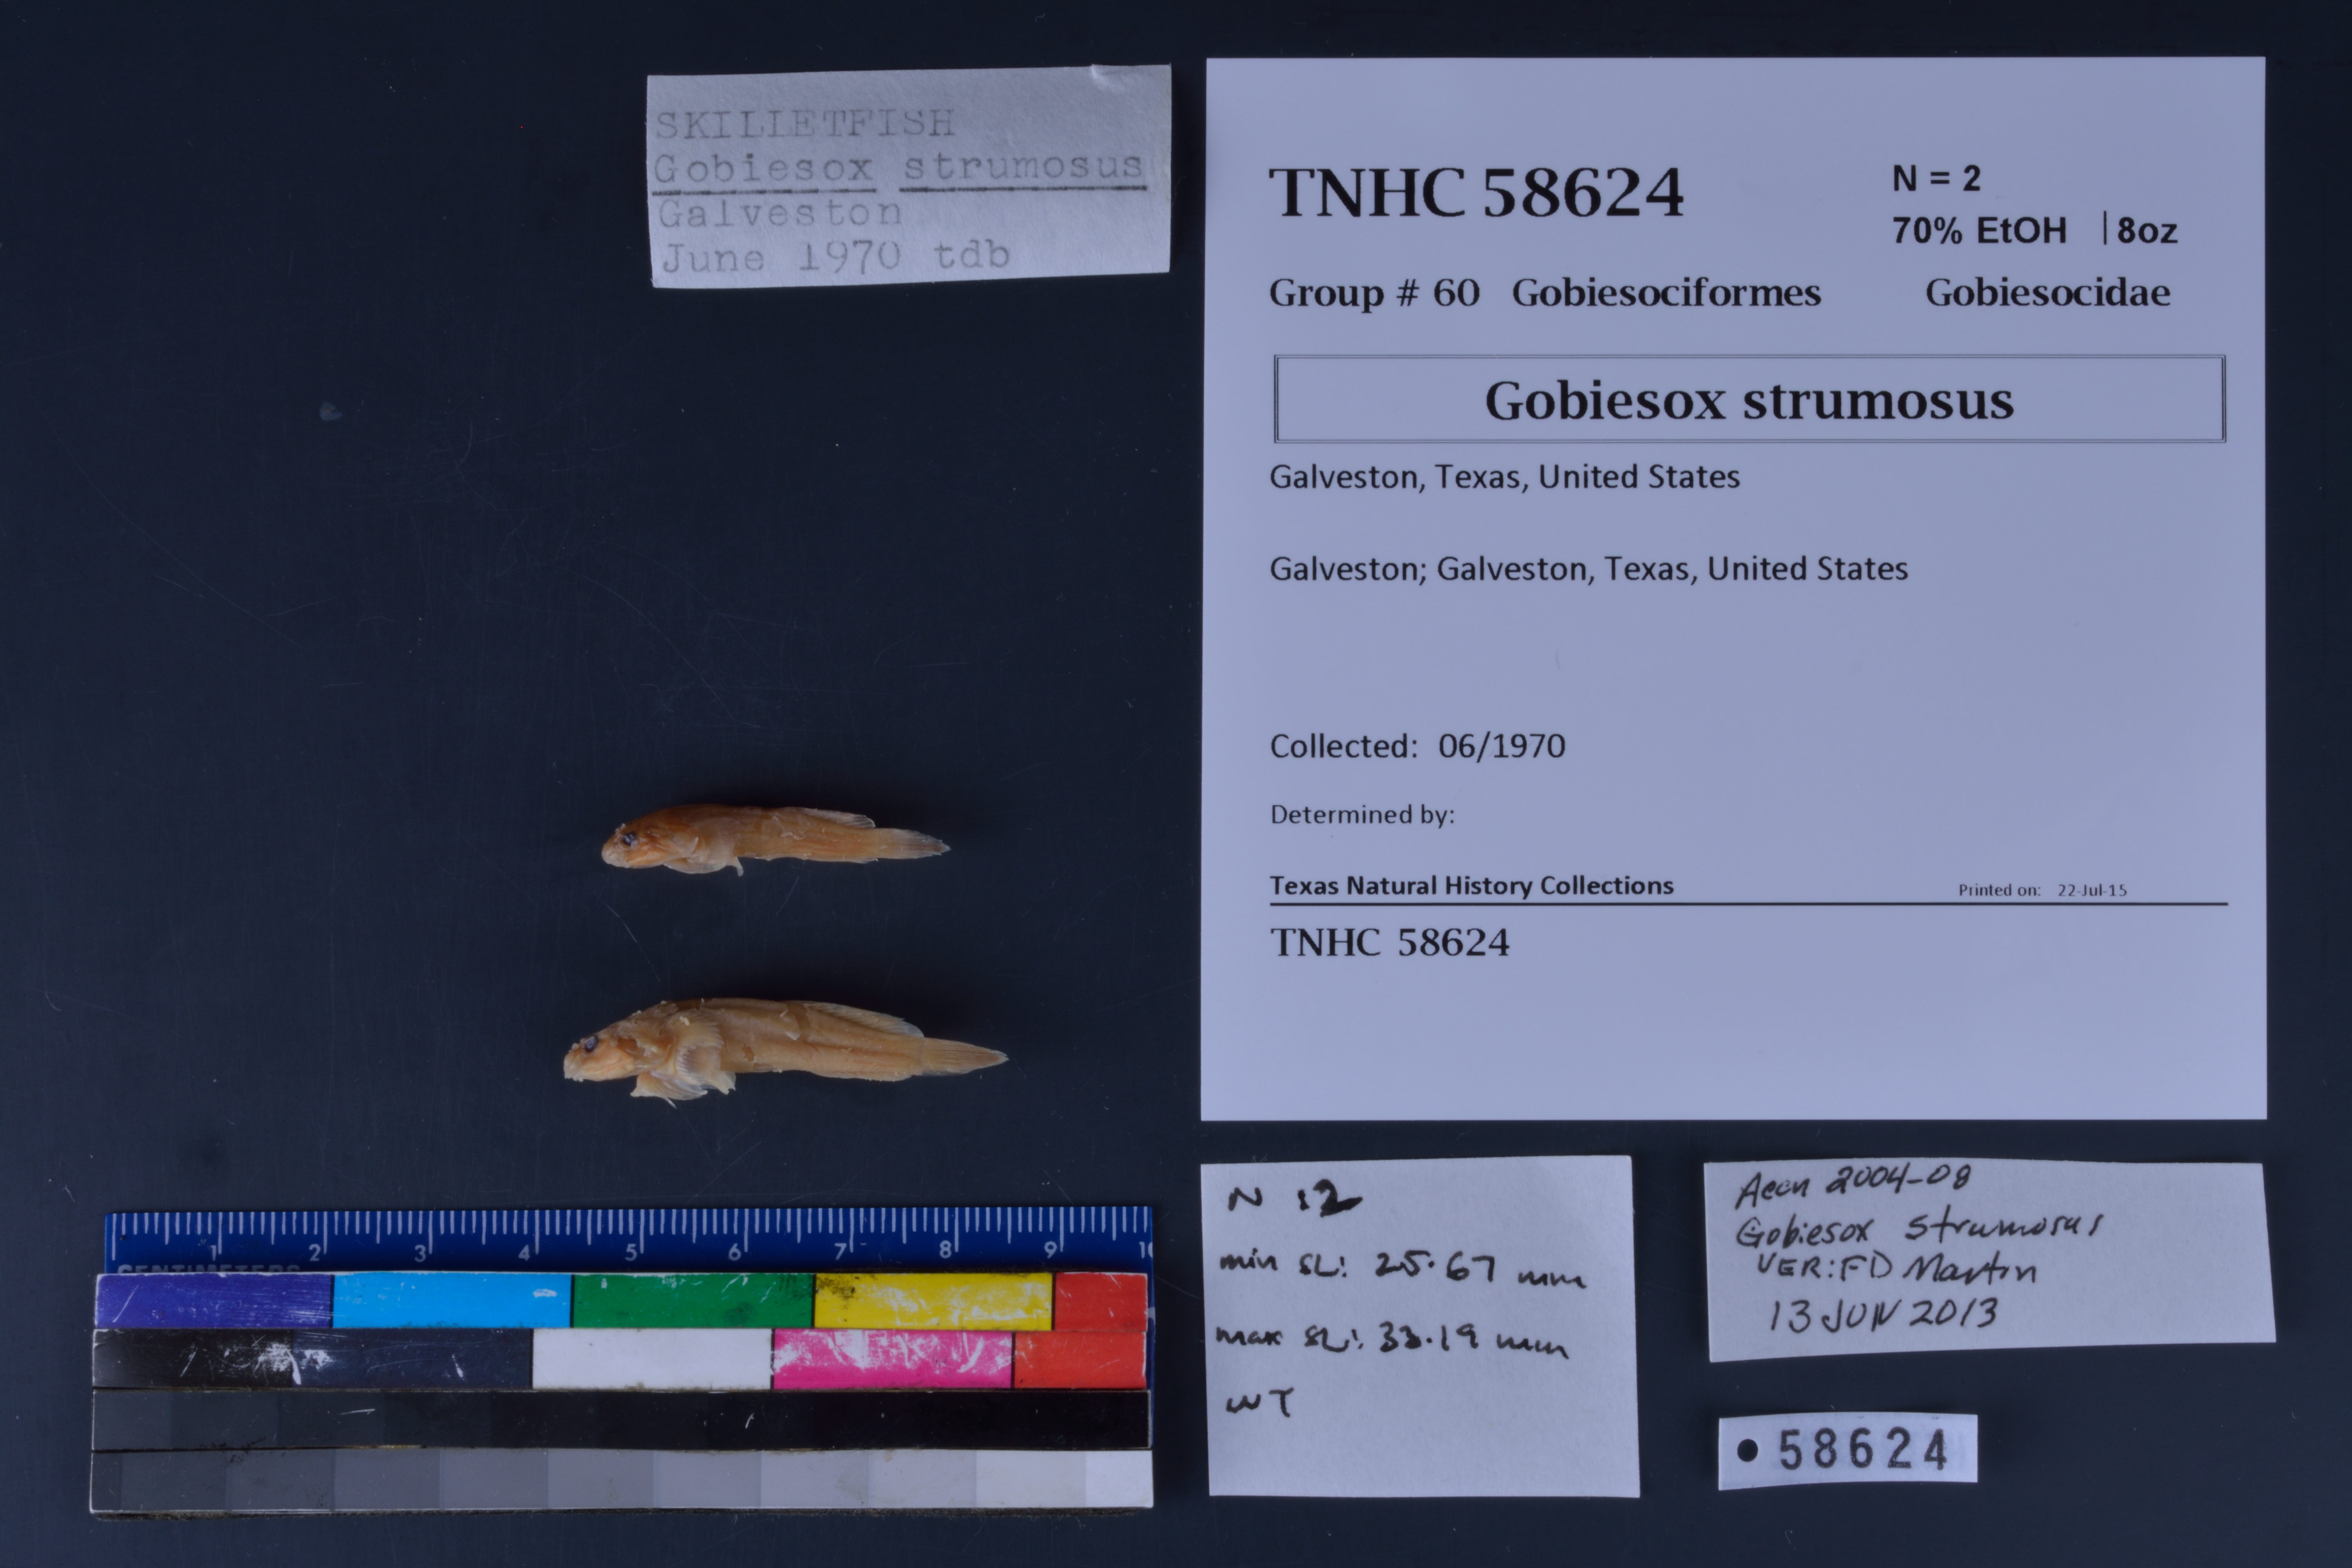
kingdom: Animalia
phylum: Chordata
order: Gobiesociformes
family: Gobiesocidae
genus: Gobiesox
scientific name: Gobiesox strumosus
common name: Skilletfish
